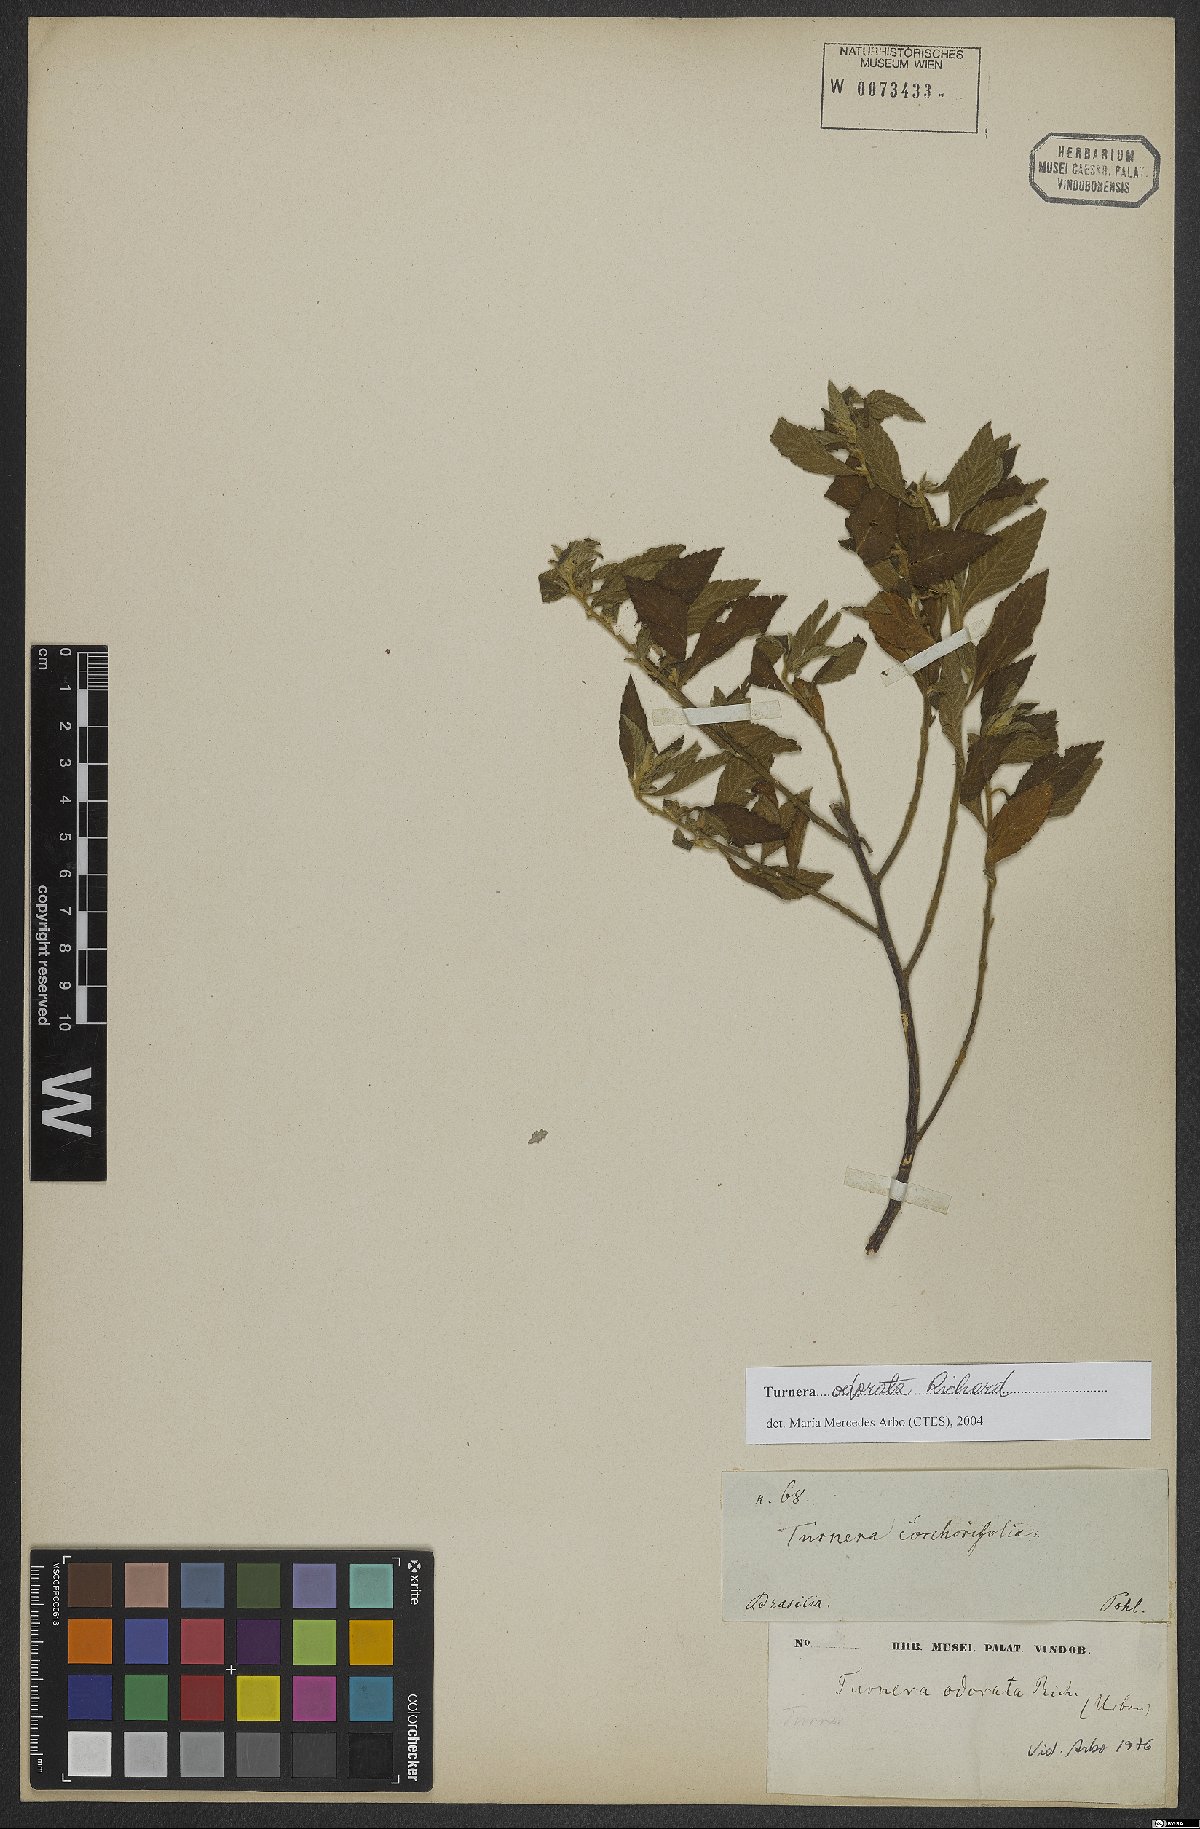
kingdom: Plantae
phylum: Tracheophyta
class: Magnoliopsida
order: Malpighiales
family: Turneraceae
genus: Turnera
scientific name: Turnera odorata
